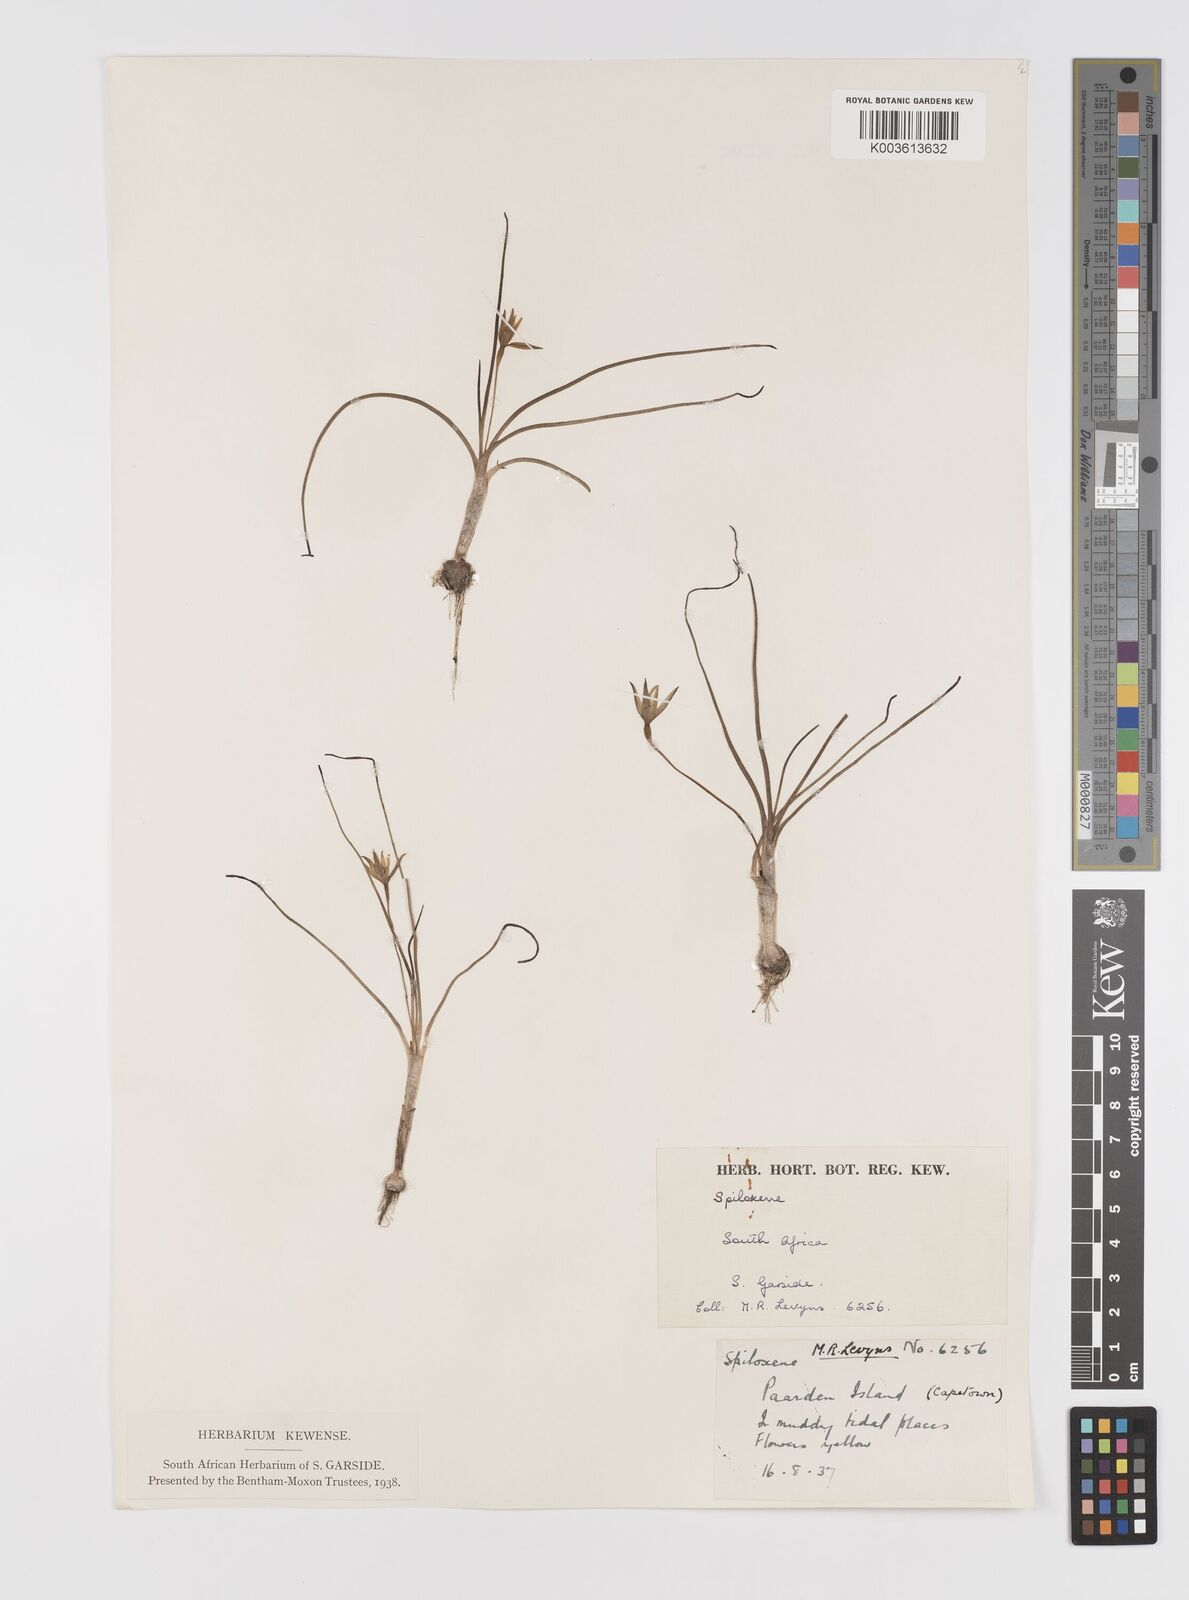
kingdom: Plantae
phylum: Tracheophyta
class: Liliopsida
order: Asparagales
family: Hypoxidaceae
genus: Pauridia
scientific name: Pauridia
